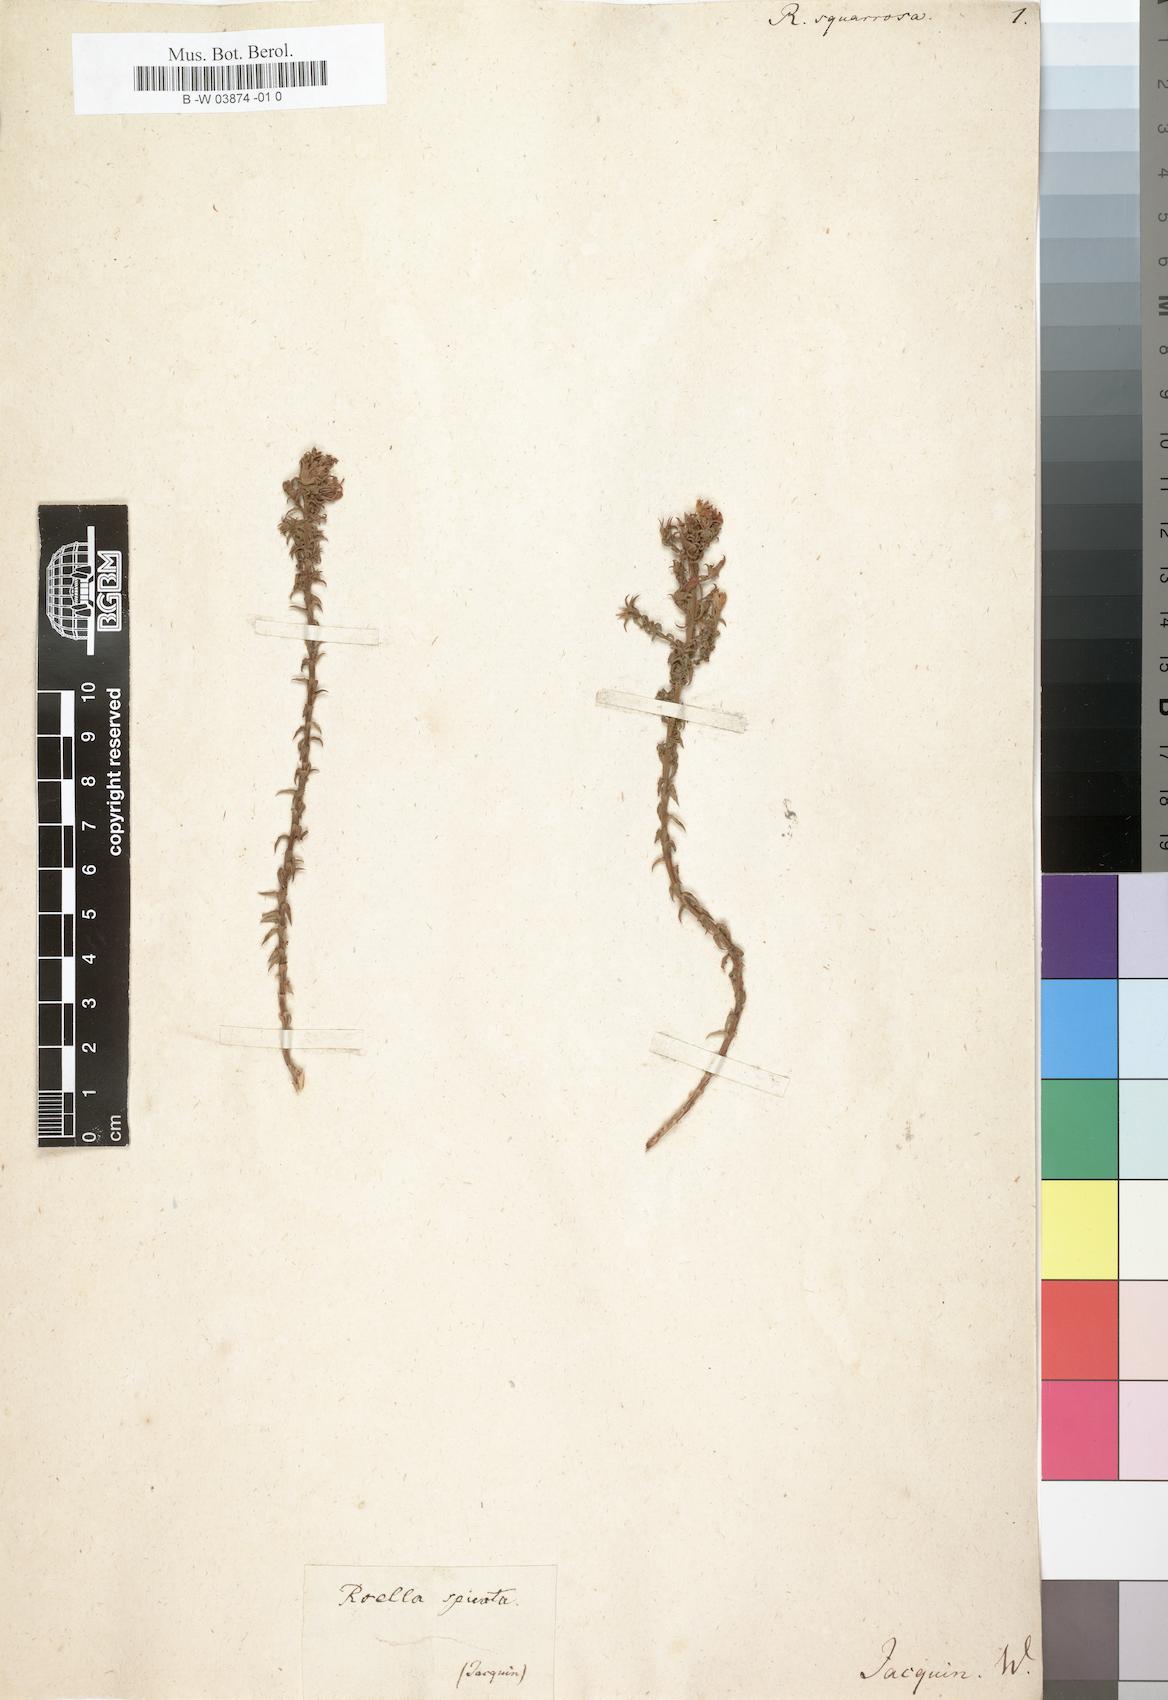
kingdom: Plantae
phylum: Tracheophyta
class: Magnoliopsida
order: Asterales
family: Campanulaceae
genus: Roella
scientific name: Roella squarrosa
